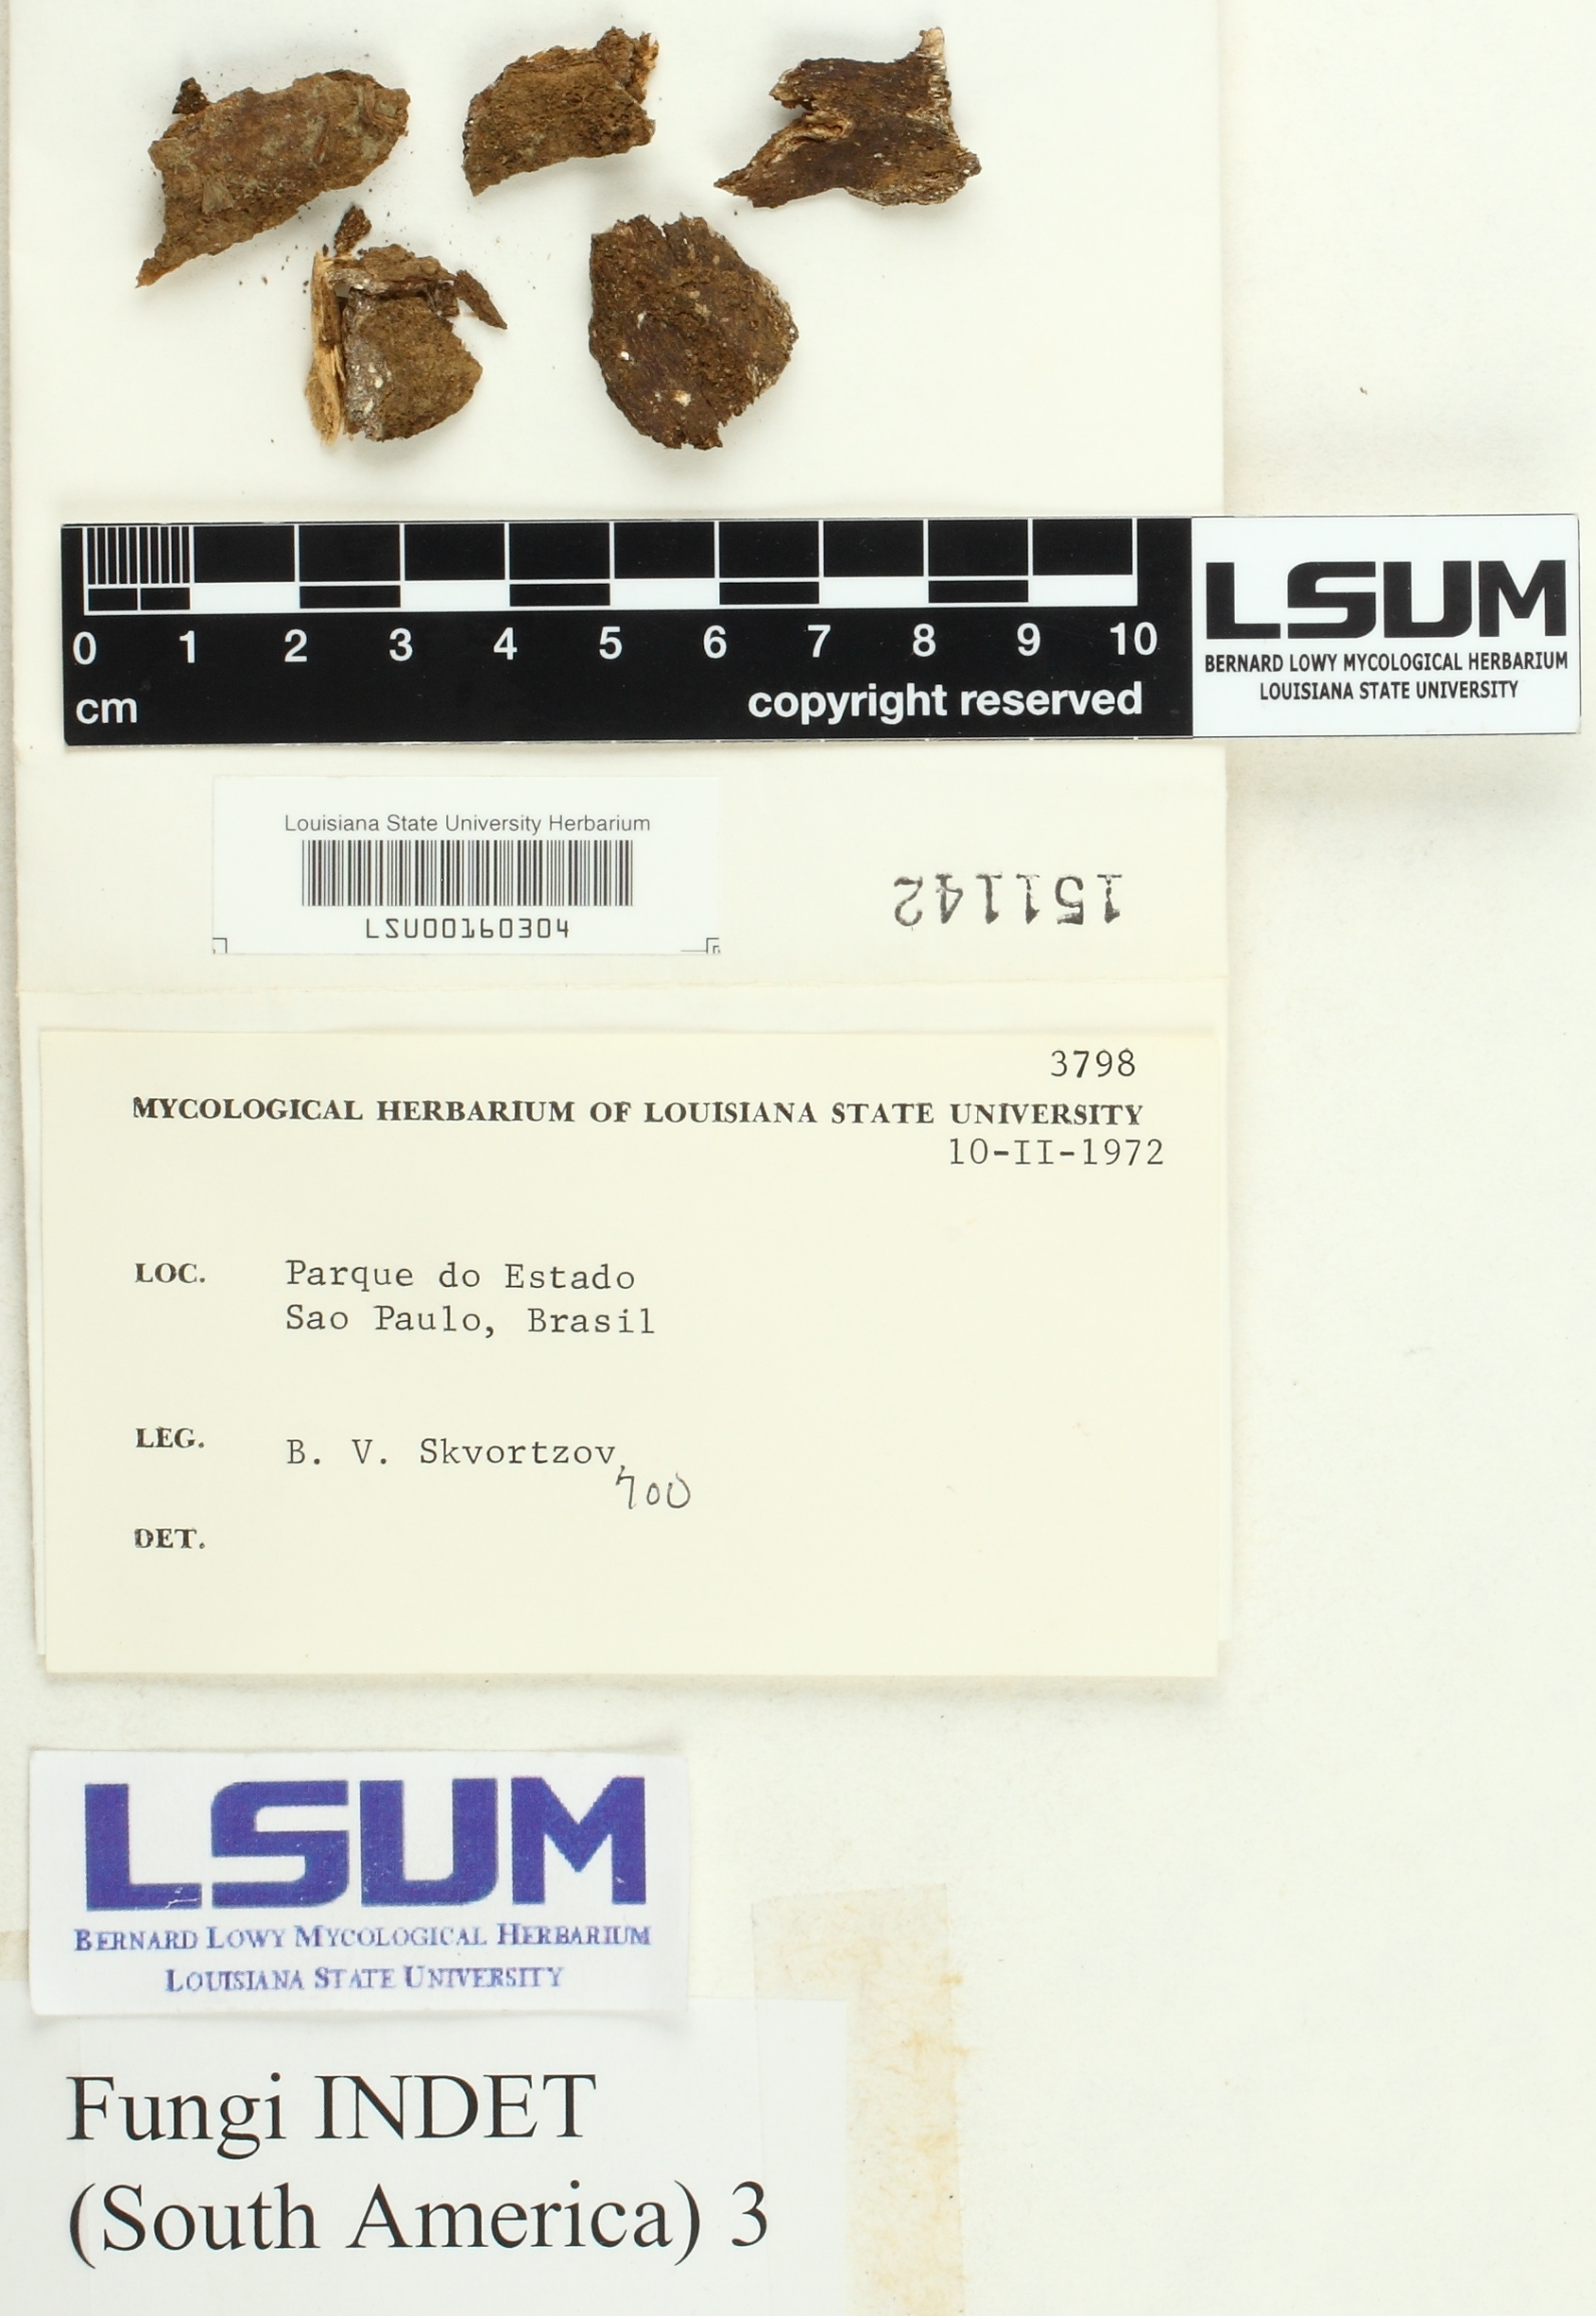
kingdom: Fungi
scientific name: Fungi
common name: Fungi
